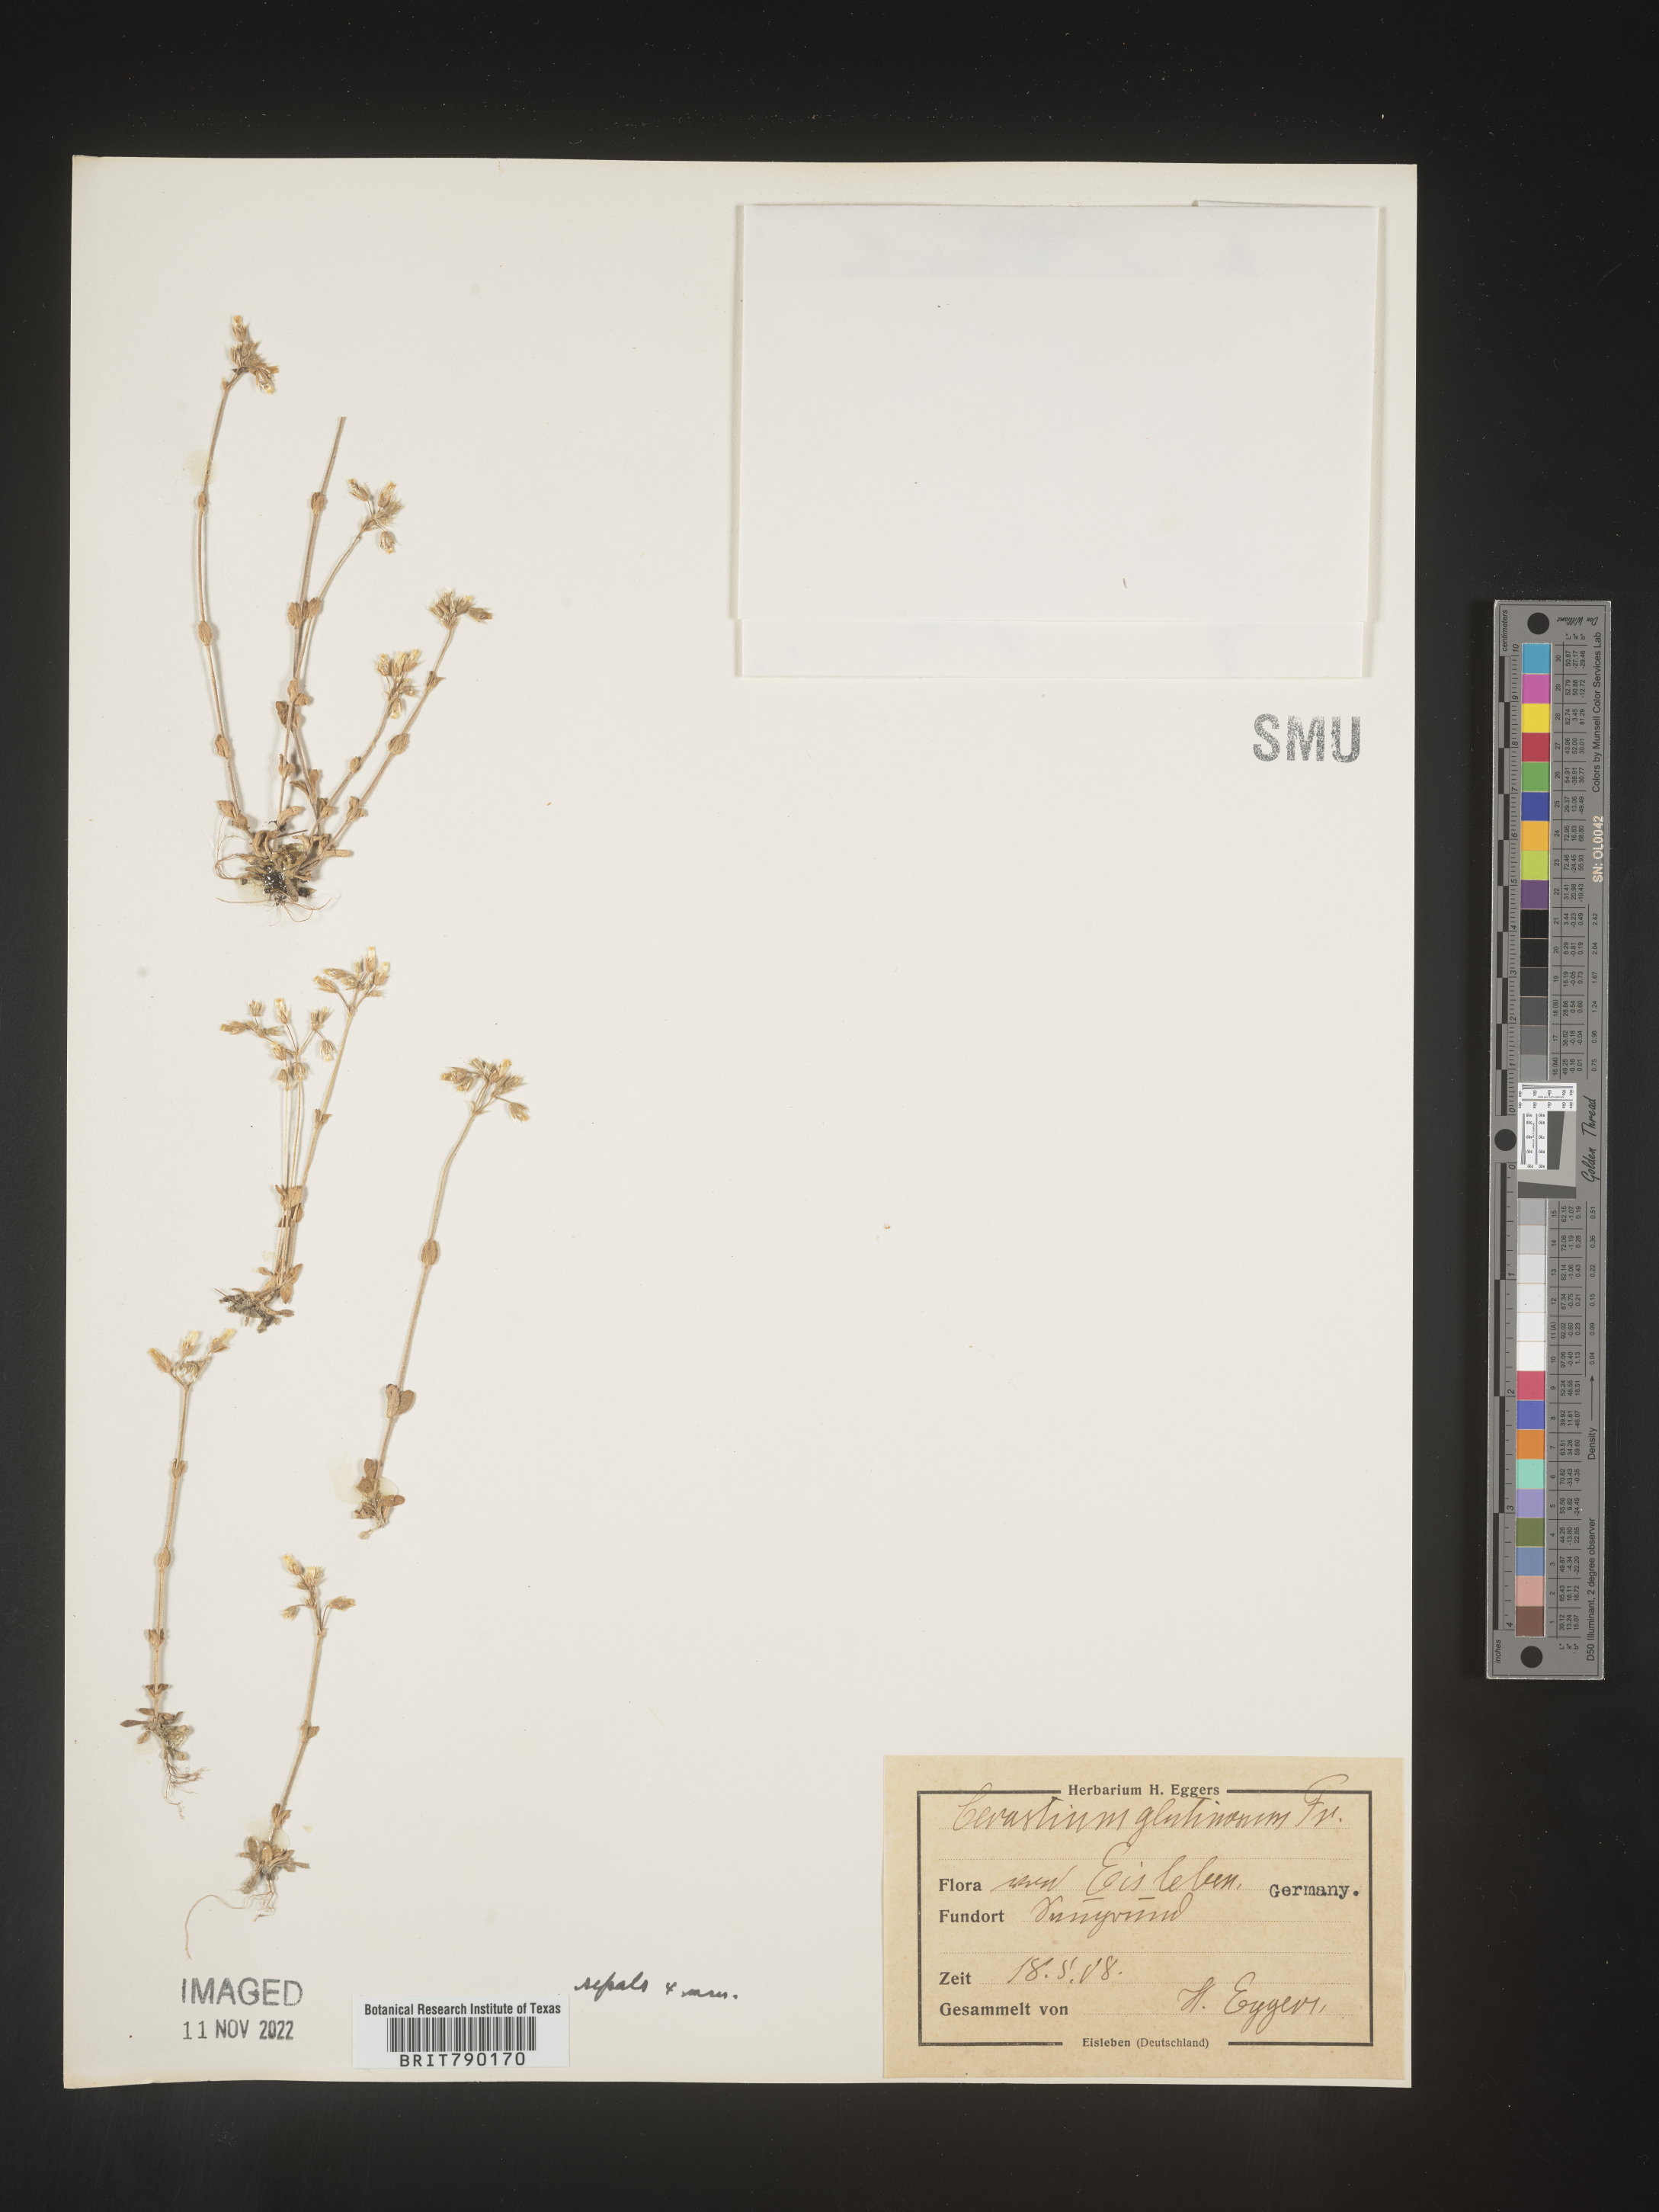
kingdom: Plantae
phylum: Tracheophyta
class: Magnoliopsida
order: Caryophyllales
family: Caryophyllaceae
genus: Cerastium
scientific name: Cerastium
